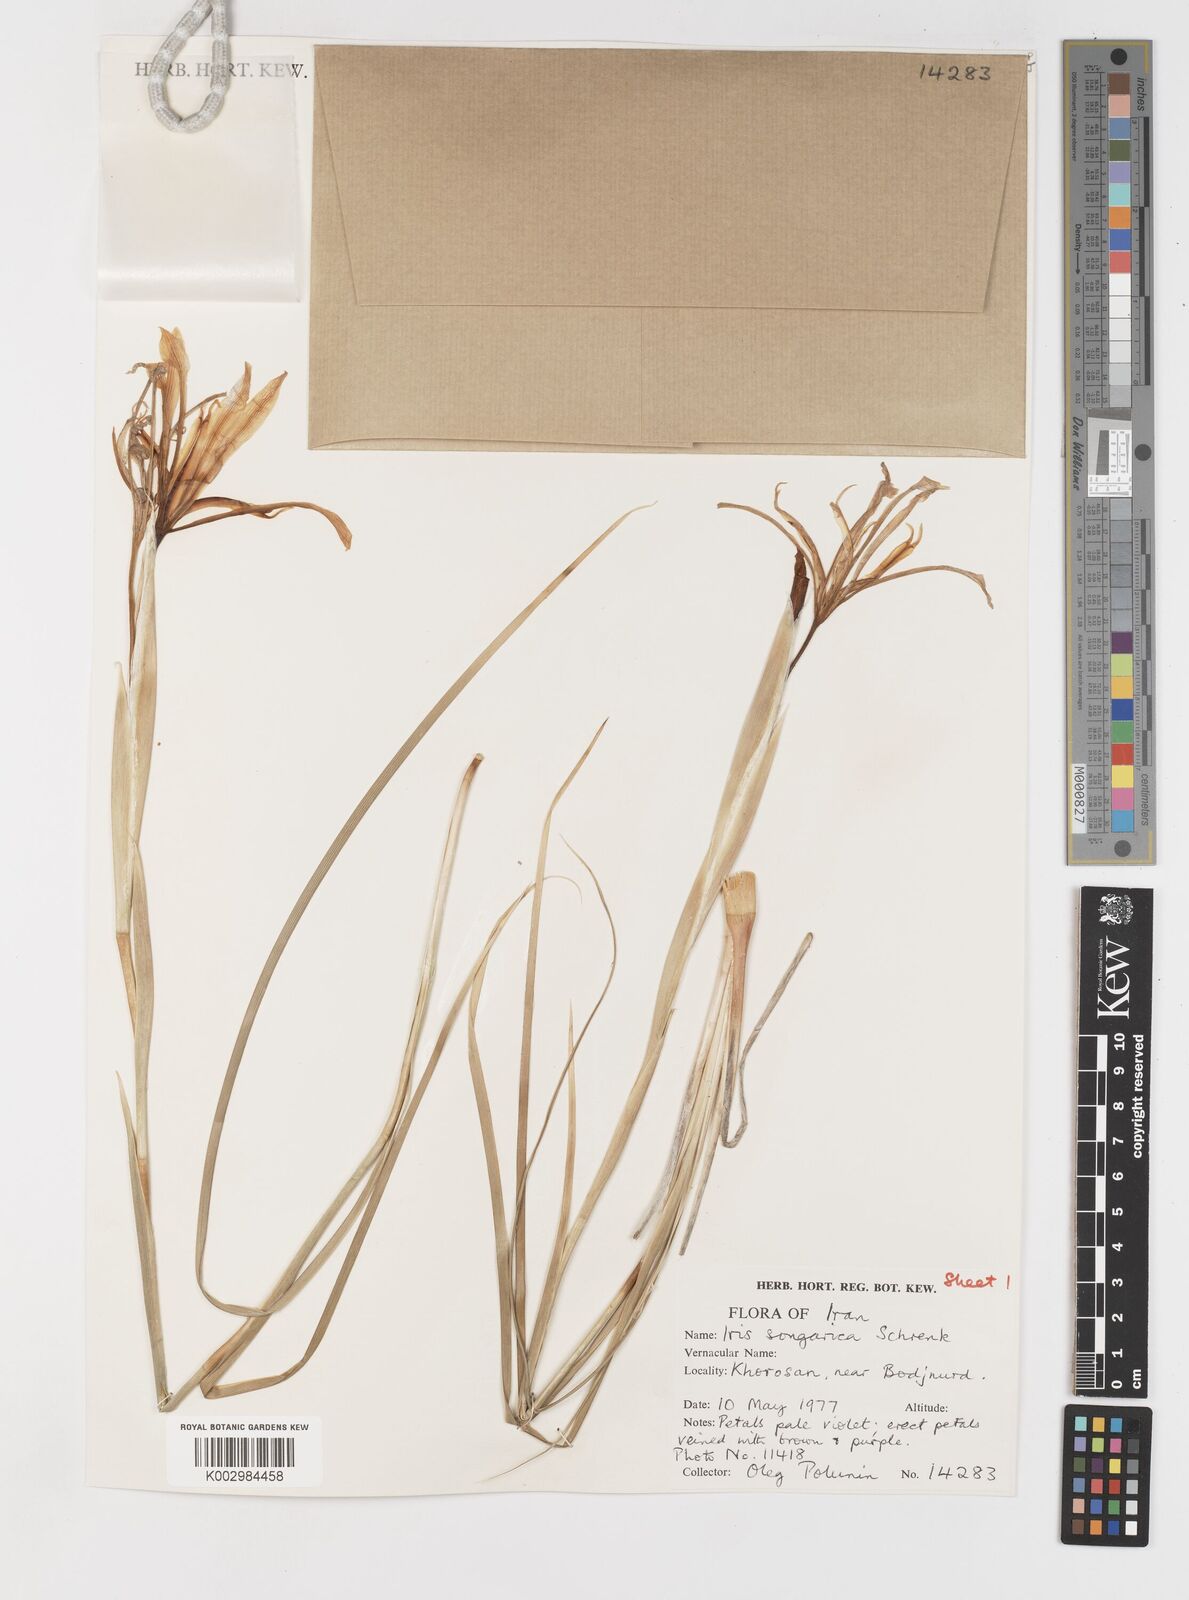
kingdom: Plantae
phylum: Tracheophyta
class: Liliopsida
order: Asparagales
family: Iridaceae
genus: Iris
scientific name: Iris songarica
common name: Songar iris
